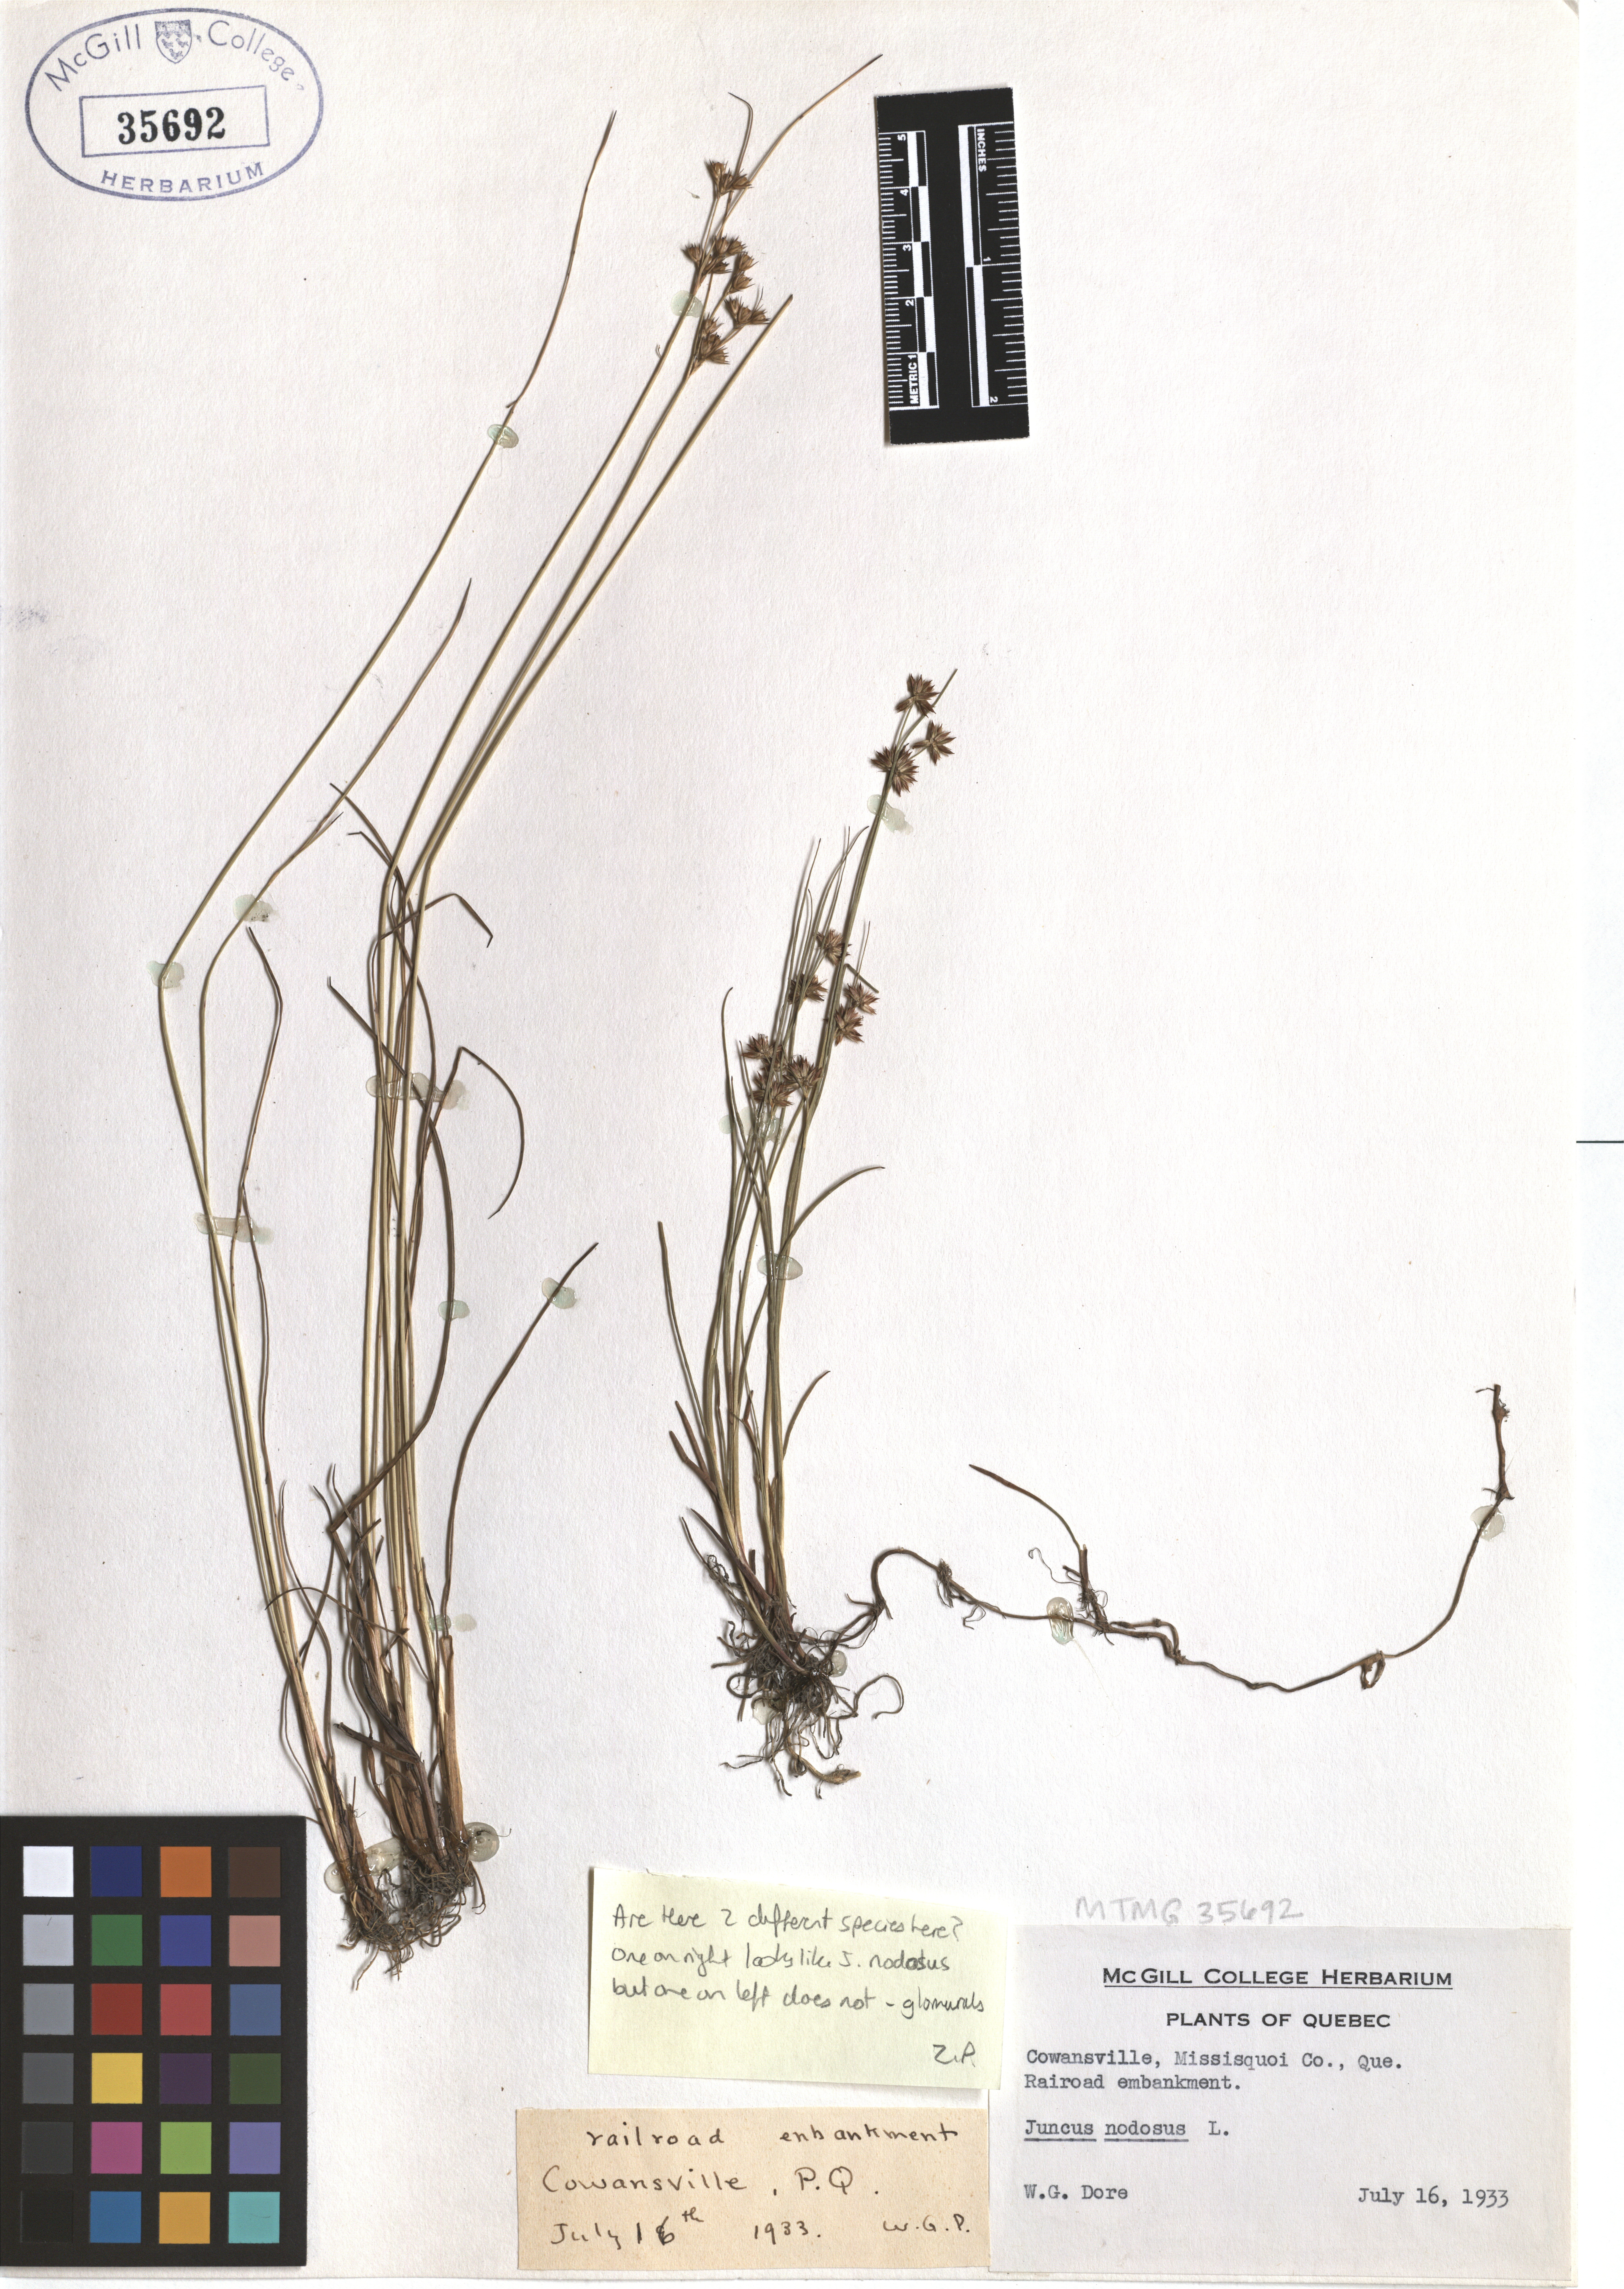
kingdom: Plantae
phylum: Tracheophyta
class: Liliopsida
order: Poales
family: Juncaceae
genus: Juncus
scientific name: Juncus nodosus
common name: Knotted rush
